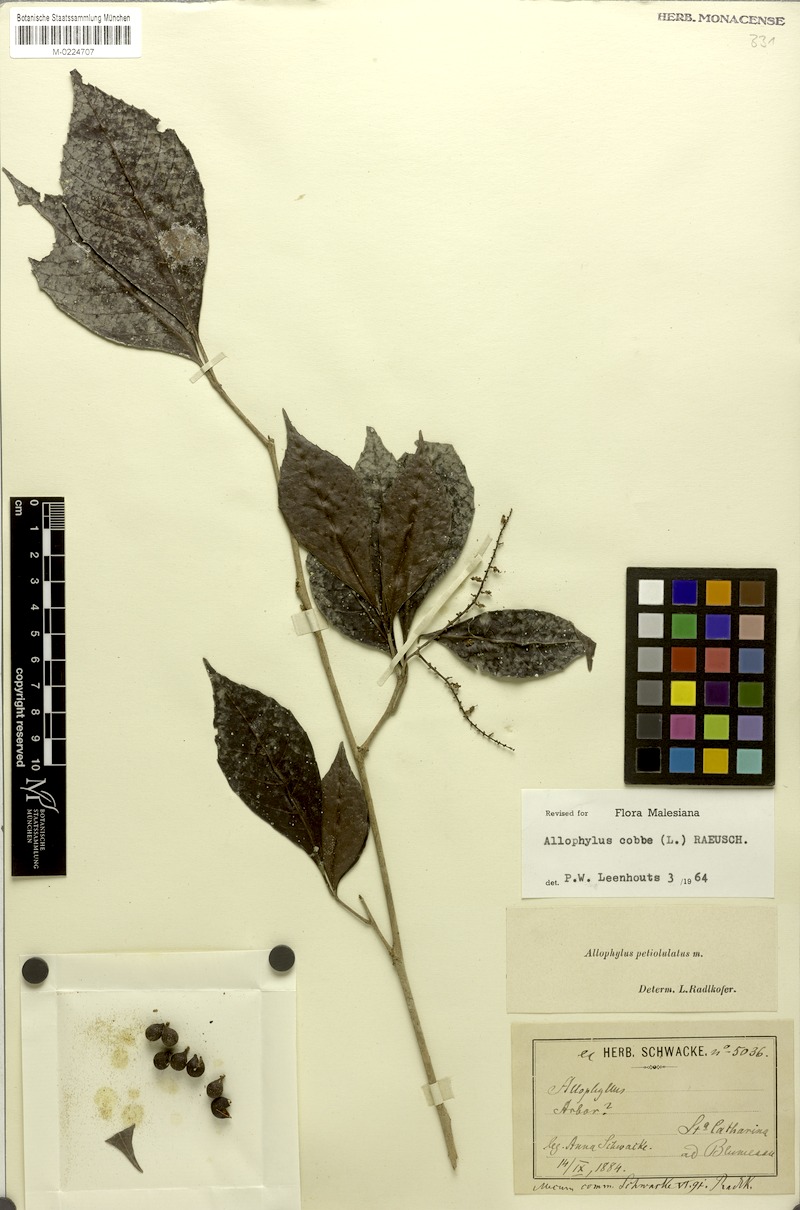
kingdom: Plantae
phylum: Tracheophyta
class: Magnoliopsida
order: Sapindales
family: Sapindaceae
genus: Allophylus
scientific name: Allophylus petiolulatus
